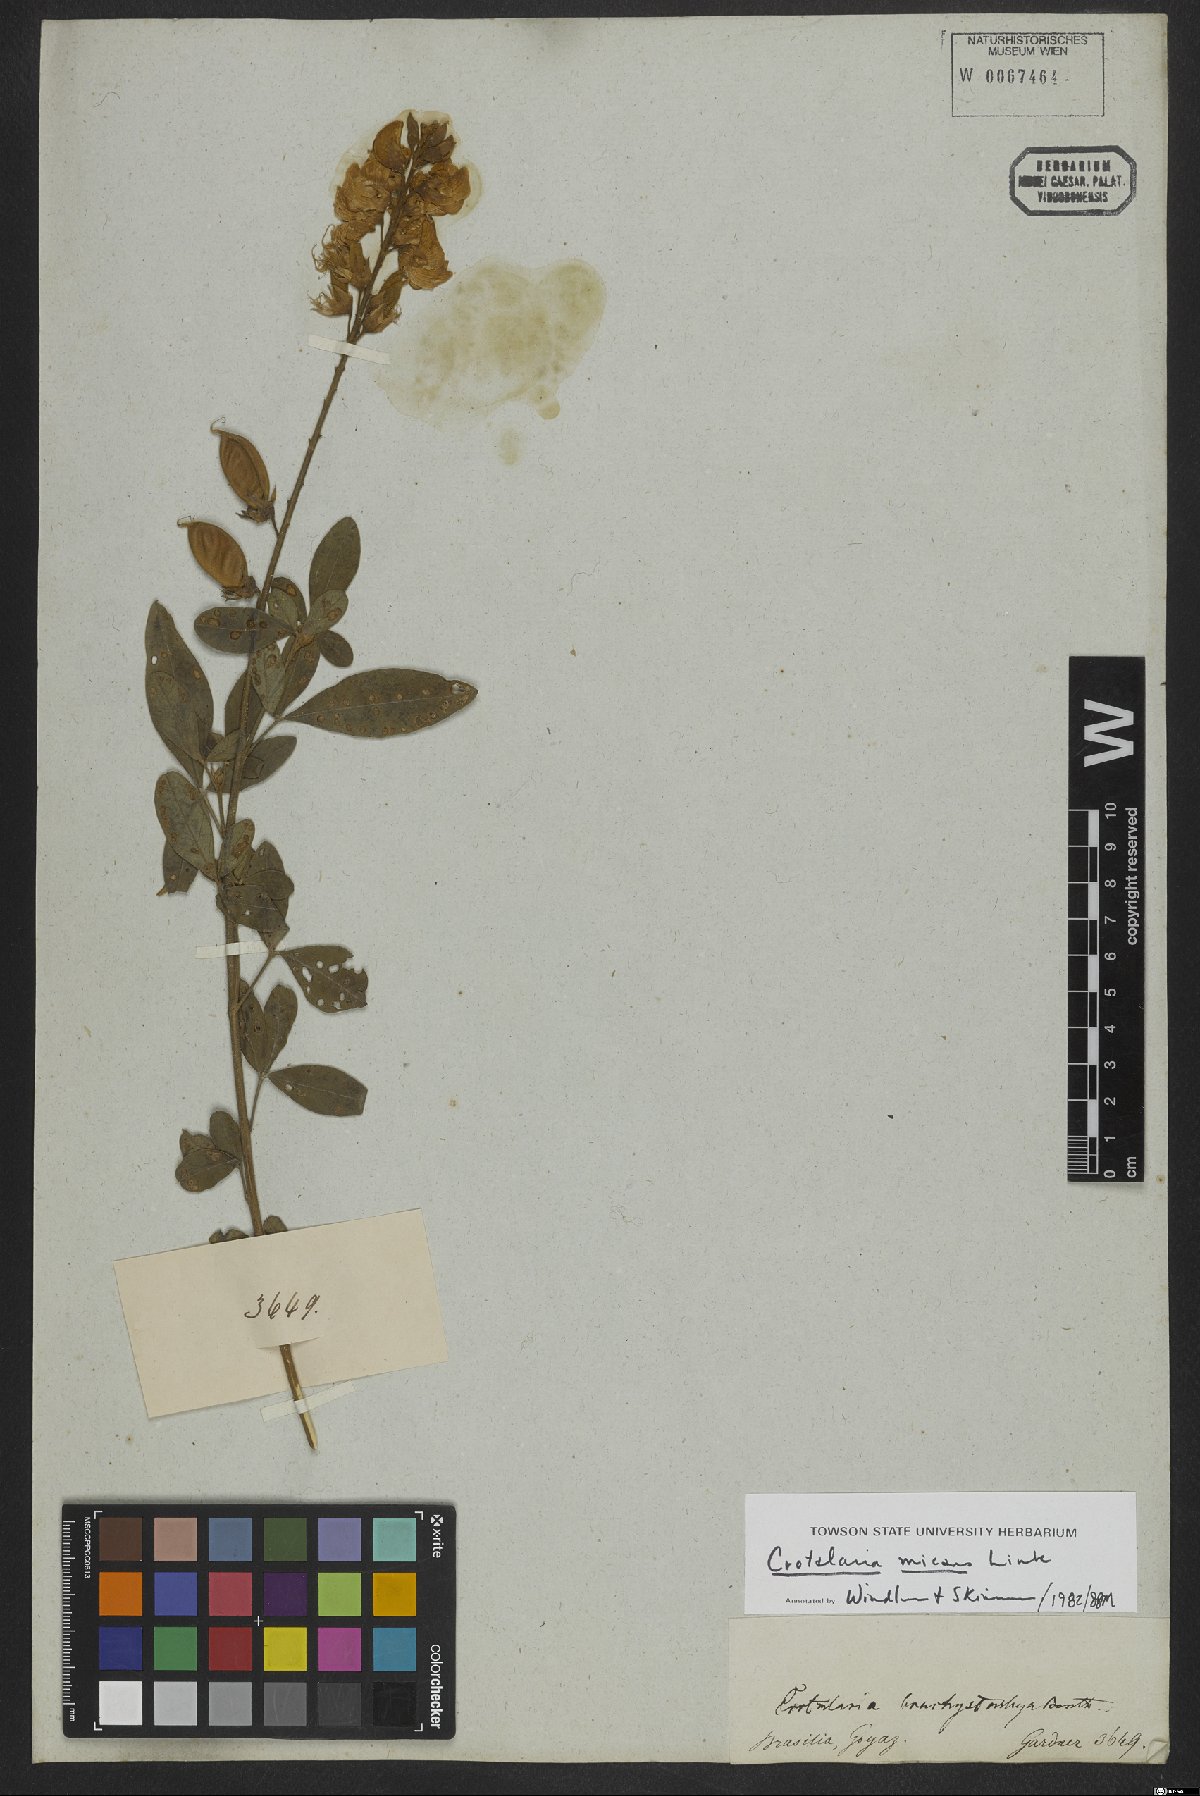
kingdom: Plantae
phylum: Tracheophyta
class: Magnoliopsida
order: Fabales
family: Fabaceae
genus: Crotalaria
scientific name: Crotalaria micans
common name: Caracas rattlebox
